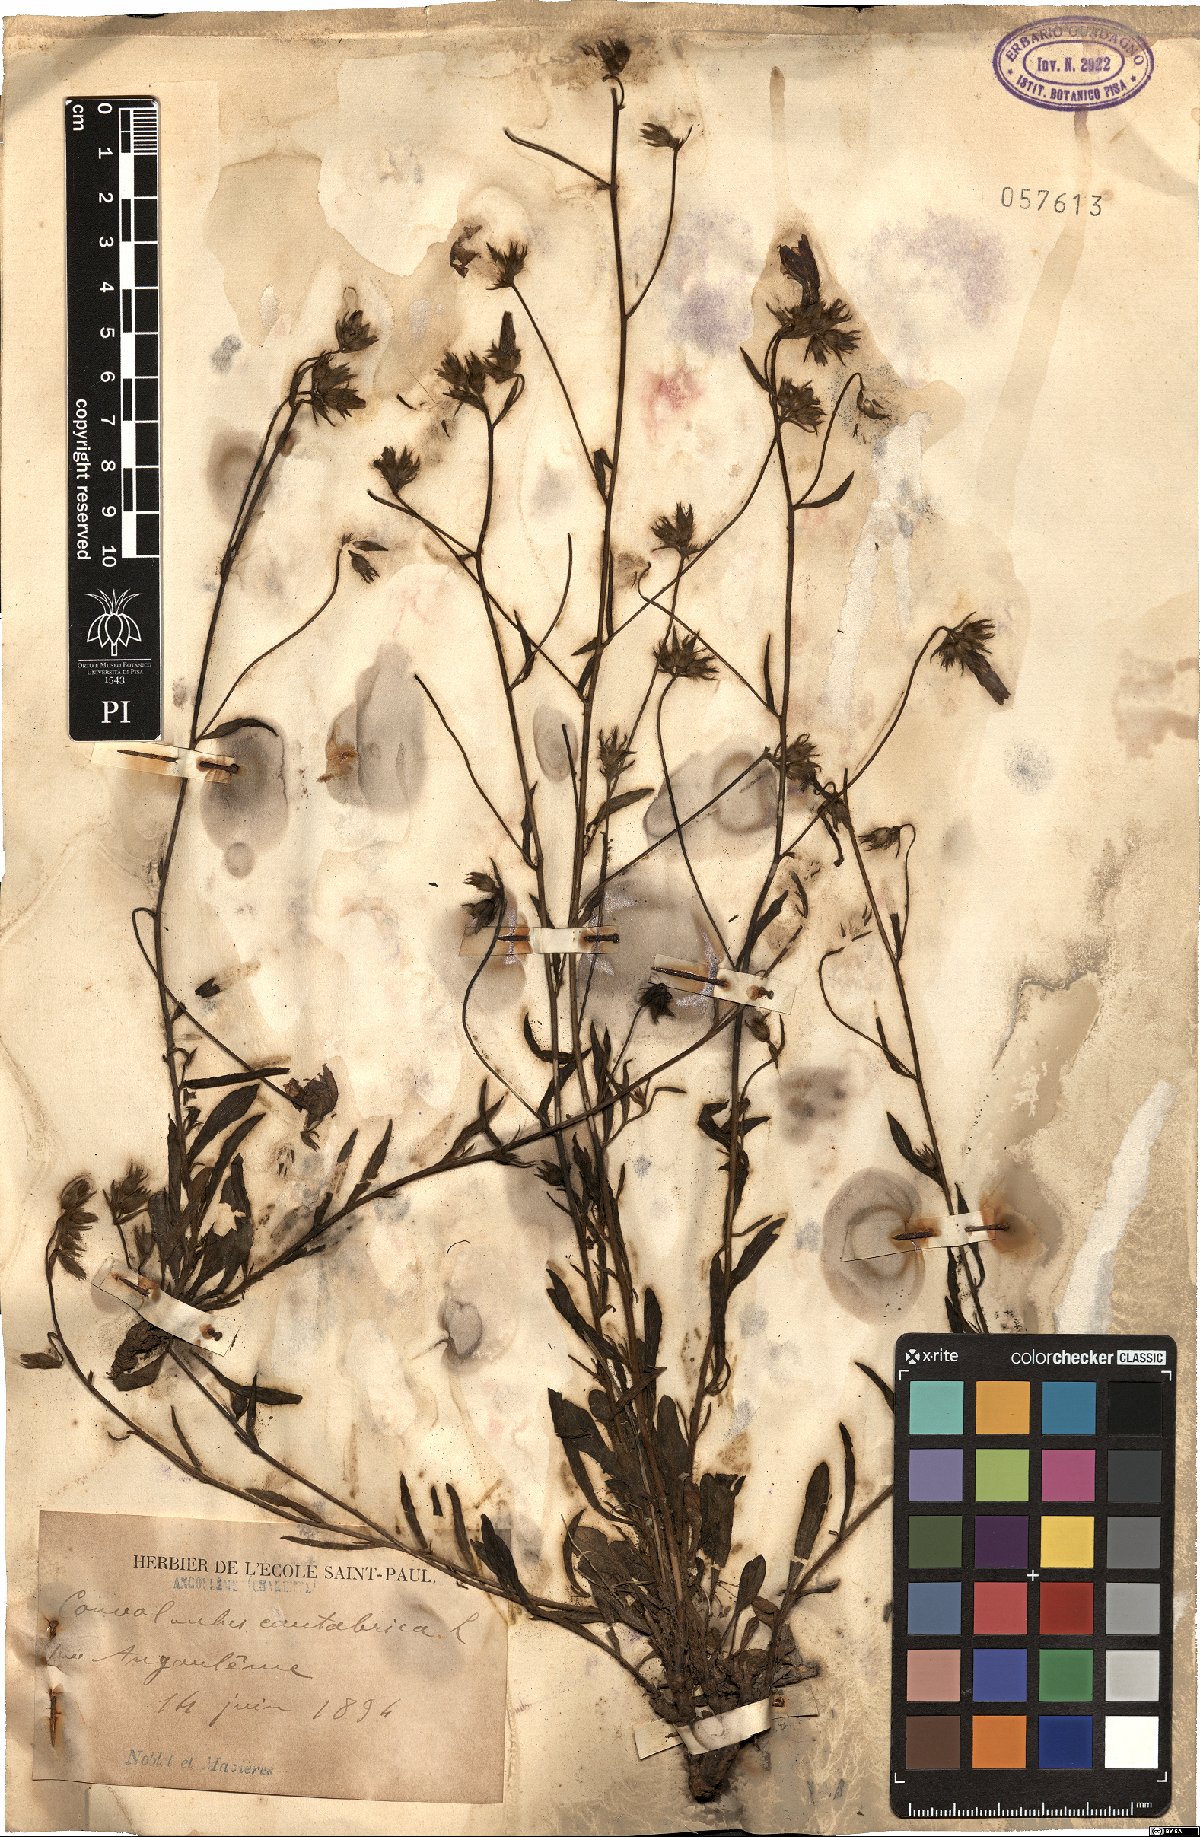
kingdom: Plantae
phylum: Tracheophyta
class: Magnoliopsida
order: Solanales
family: Convolvulaceae
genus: Convolvulus
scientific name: Convolvulus cantabrica
